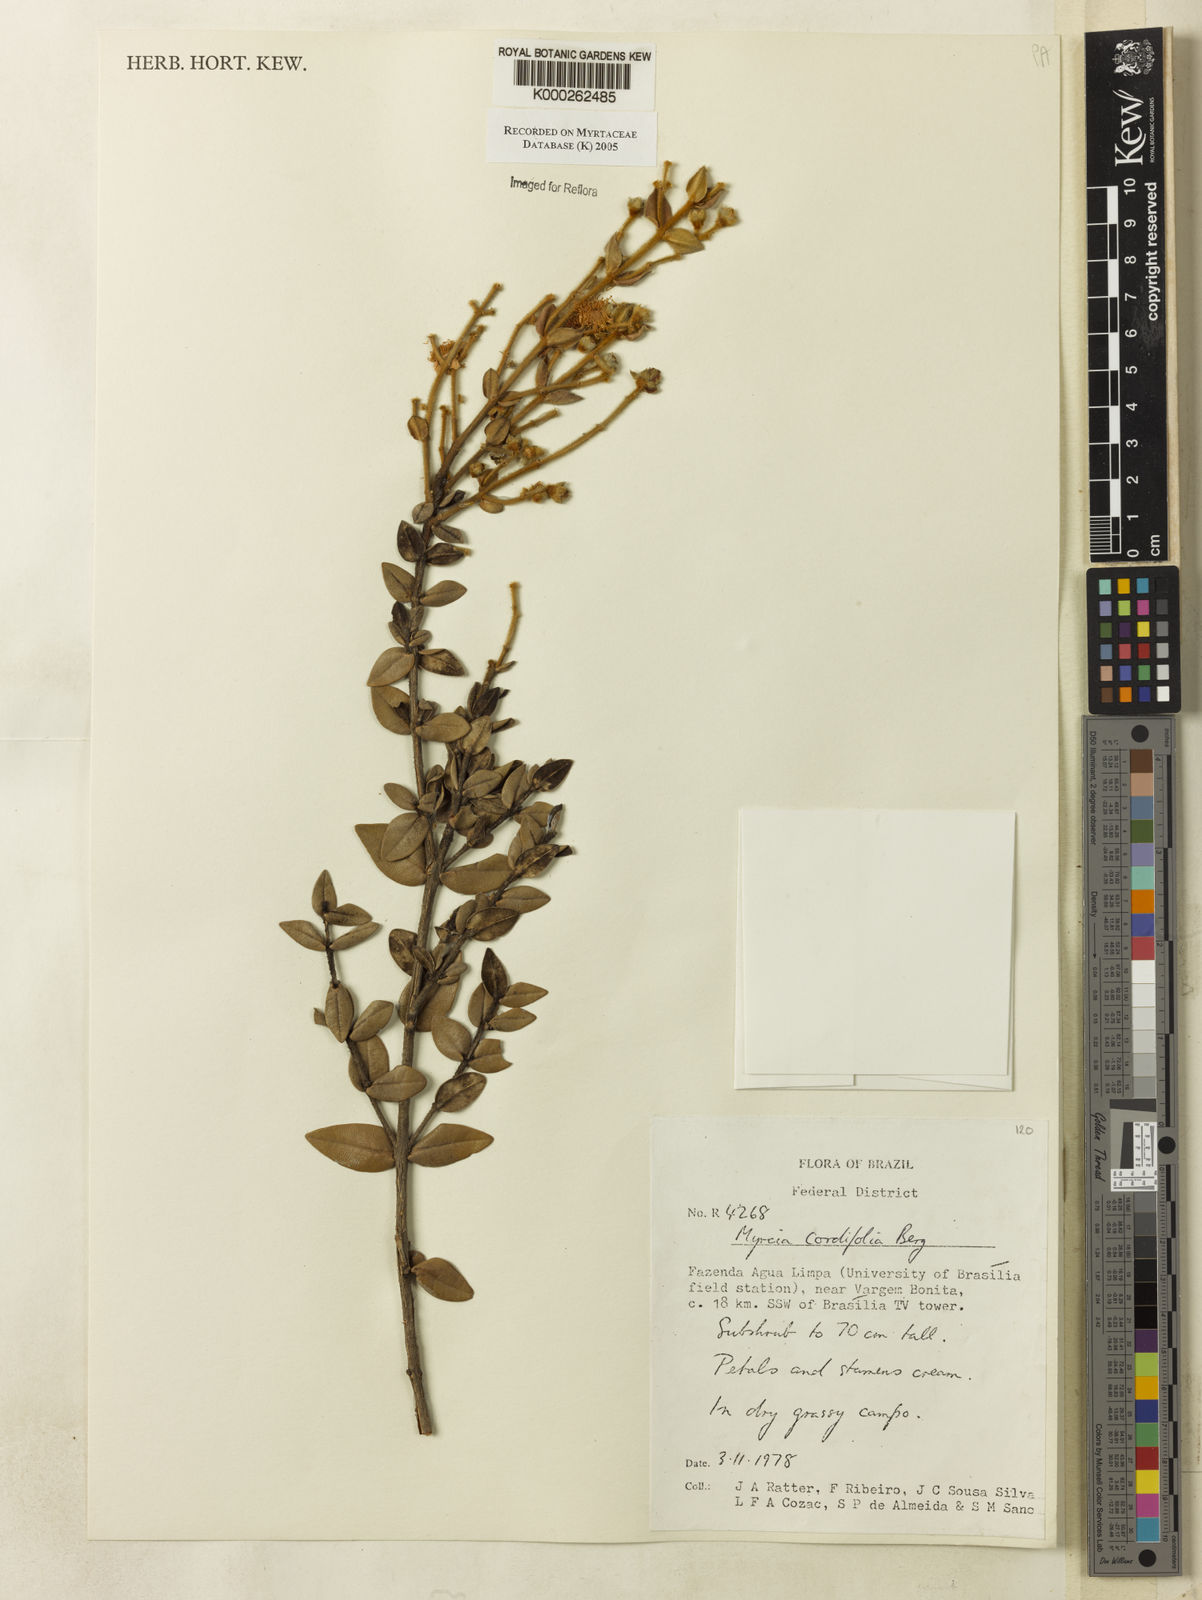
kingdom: Plantae
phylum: Tracheophyta
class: Magnoliopsida
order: Myrtales
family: Myrtaceae
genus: Myrcia
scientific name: Myrcia lasiantha
